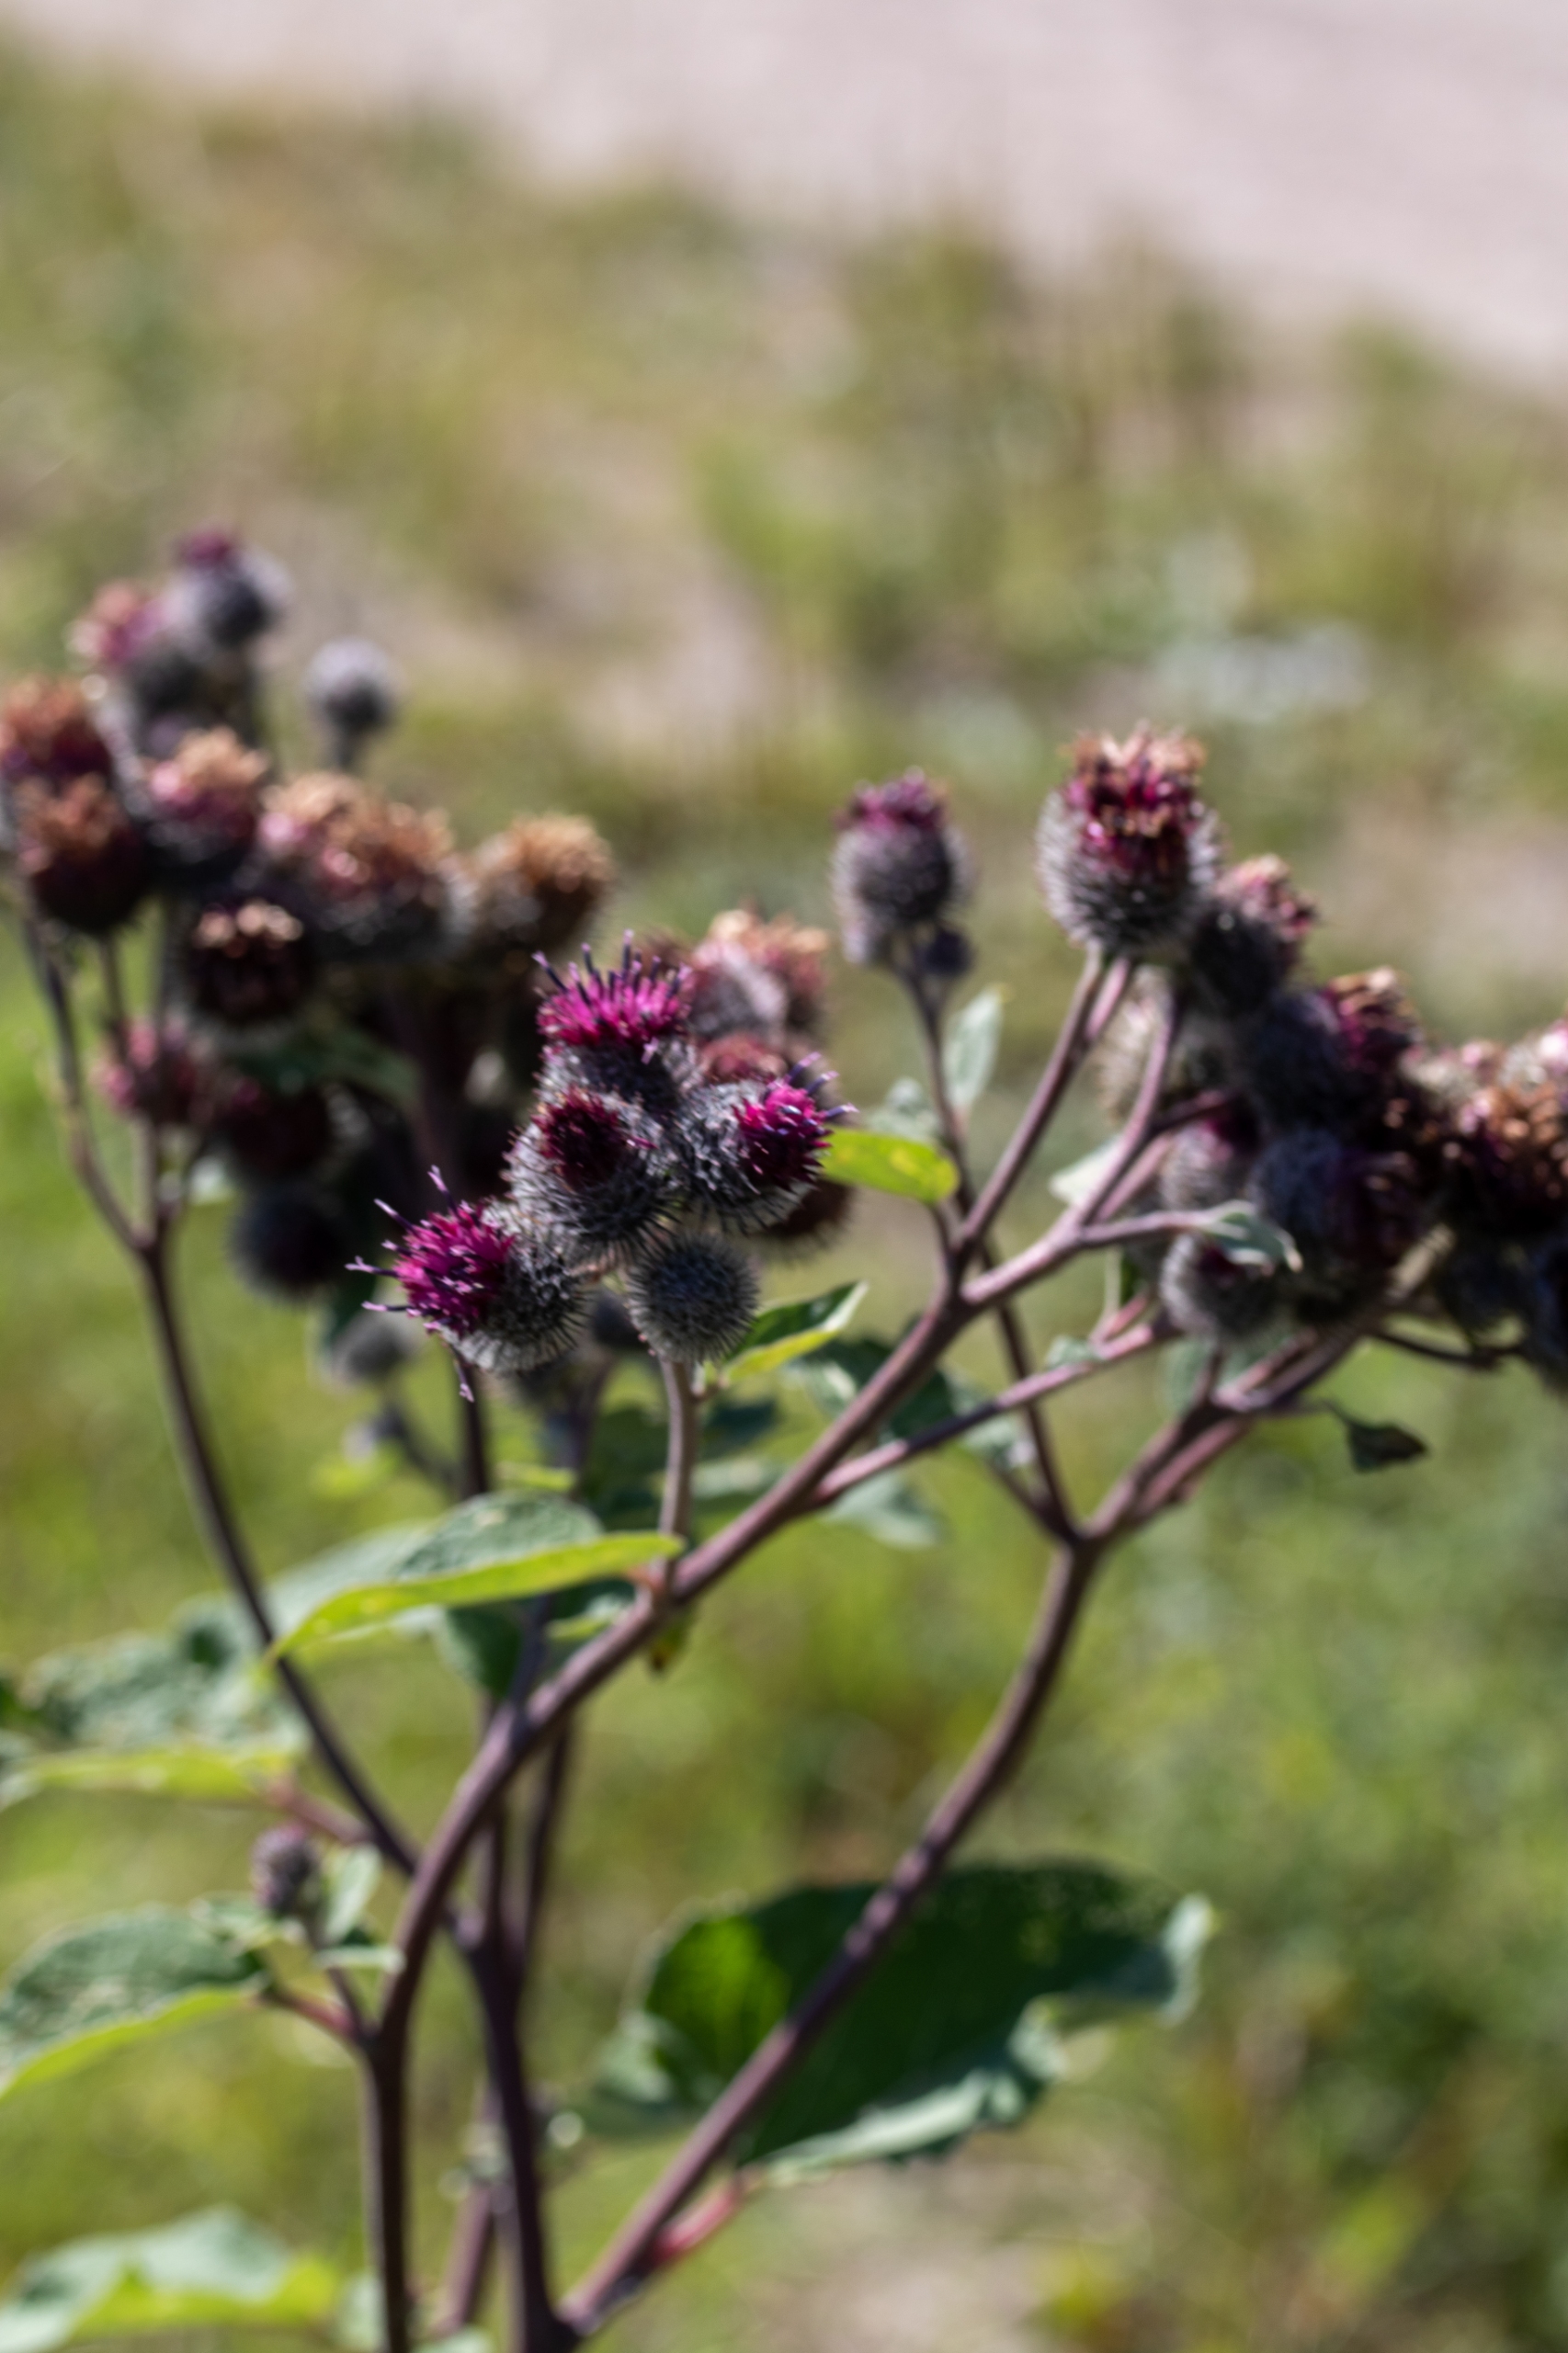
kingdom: Plantae
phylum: Tracheophyta
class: Magnoliopsida
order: Asterales
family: Asteraceae
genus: Arctium
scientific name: Arctium tomentosum
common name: Filtet burre
